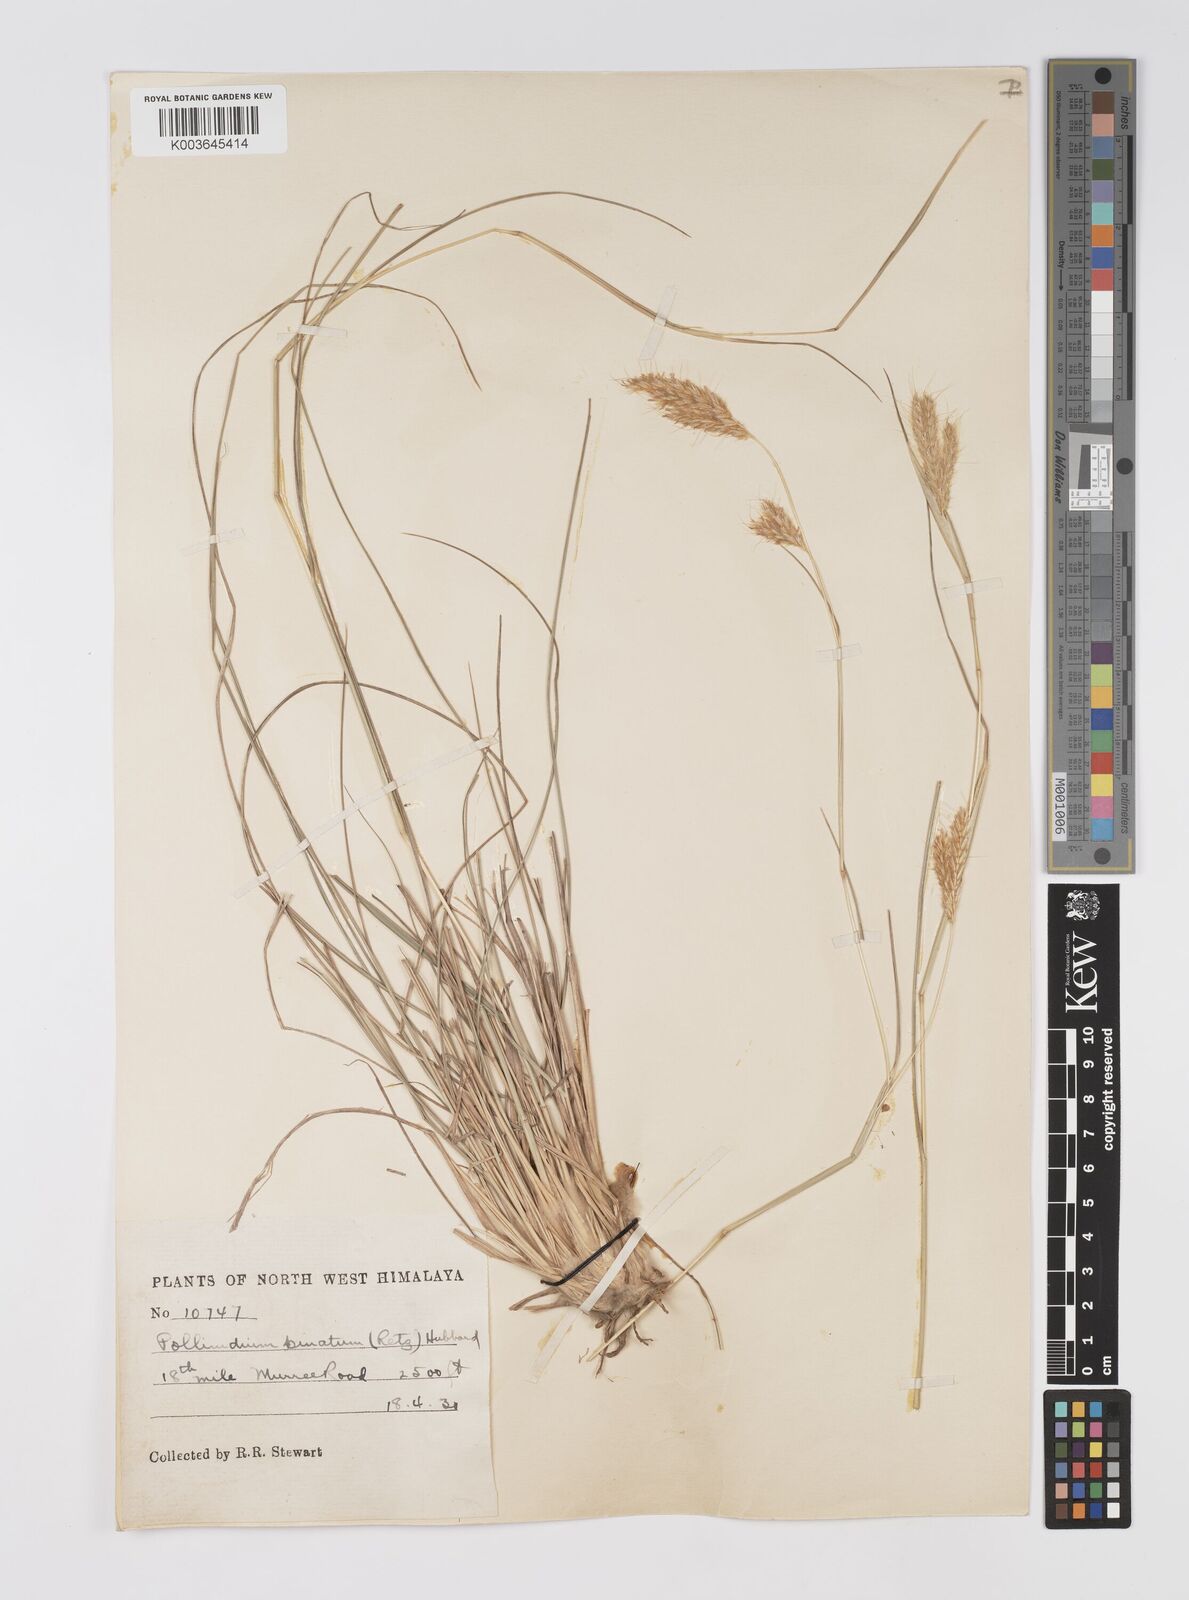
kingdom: Plantae
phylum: Tracheophyta
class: Liliopsida
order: Poales
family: Poaceae
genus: Eulaliopsis
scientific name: Eulaliopsis binata
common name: Baib grass
